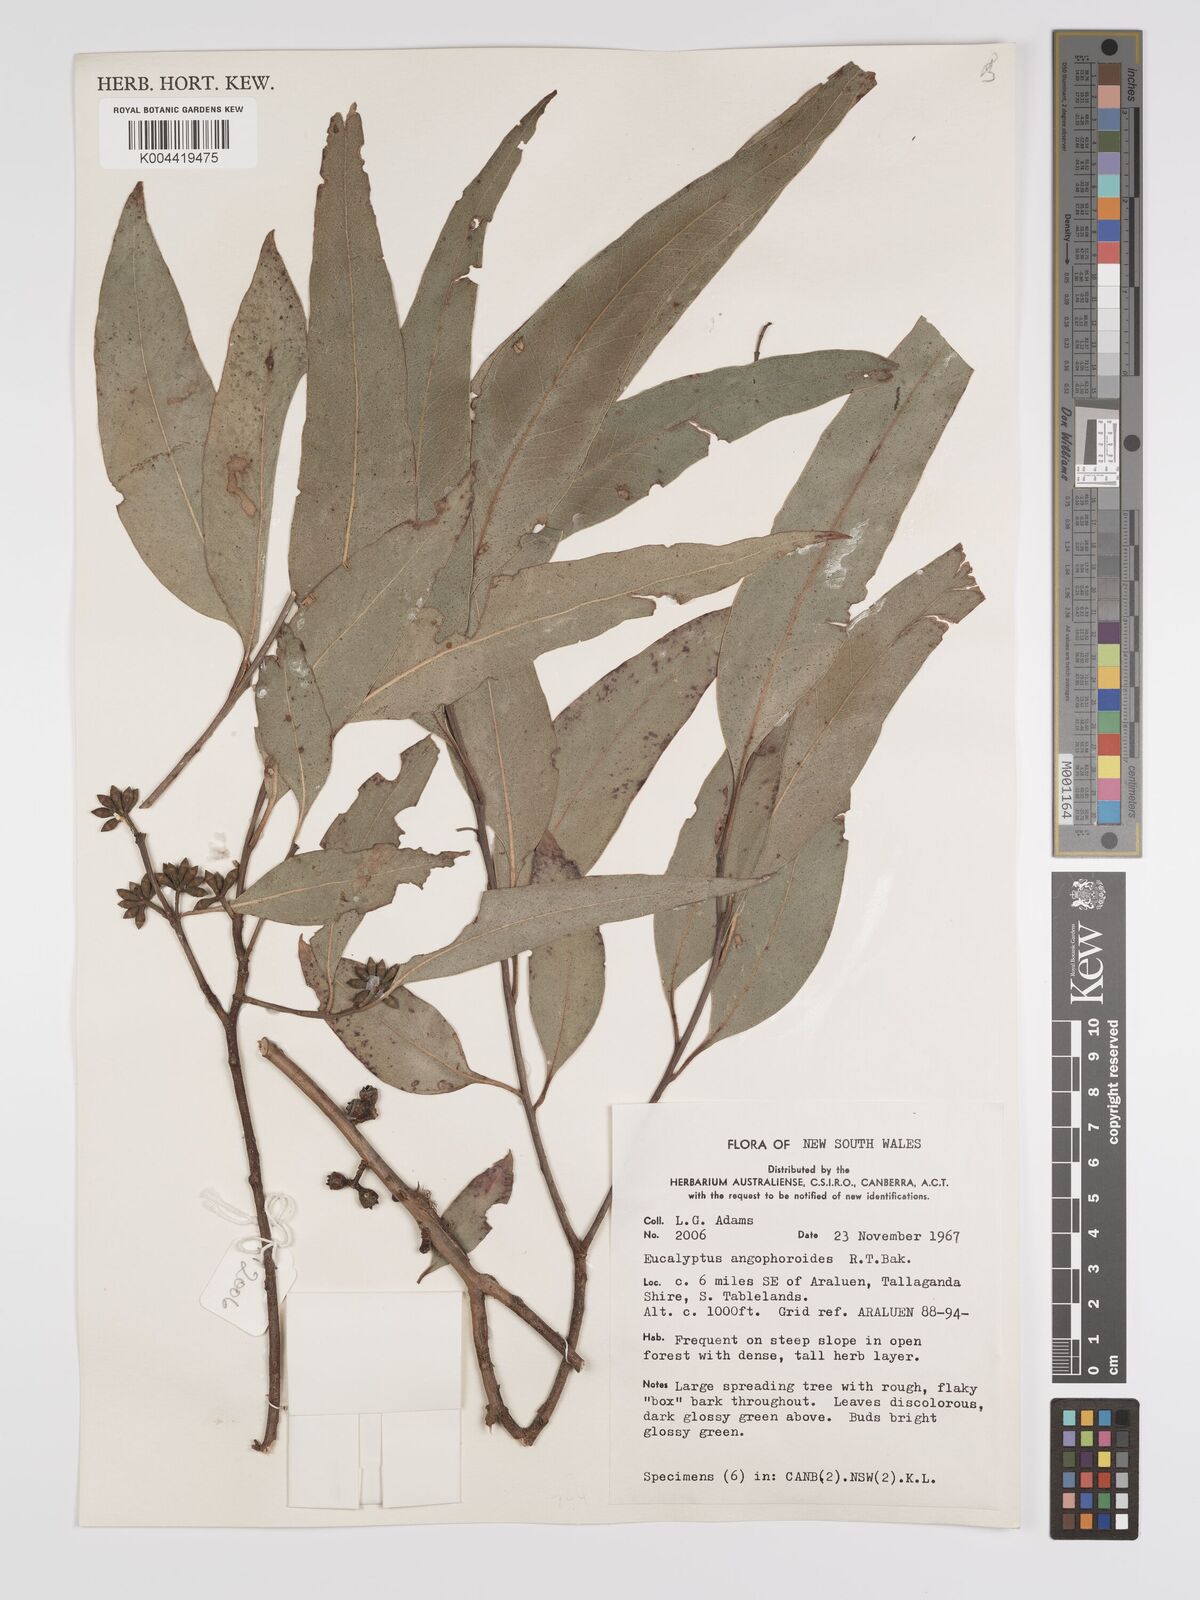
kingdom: Plantae
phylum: Tracheophyta
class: Magnoliopsida
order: Myrtales
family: Myrtaceae
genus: Eucalyptus
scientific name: Eucalyptus angophoroides
